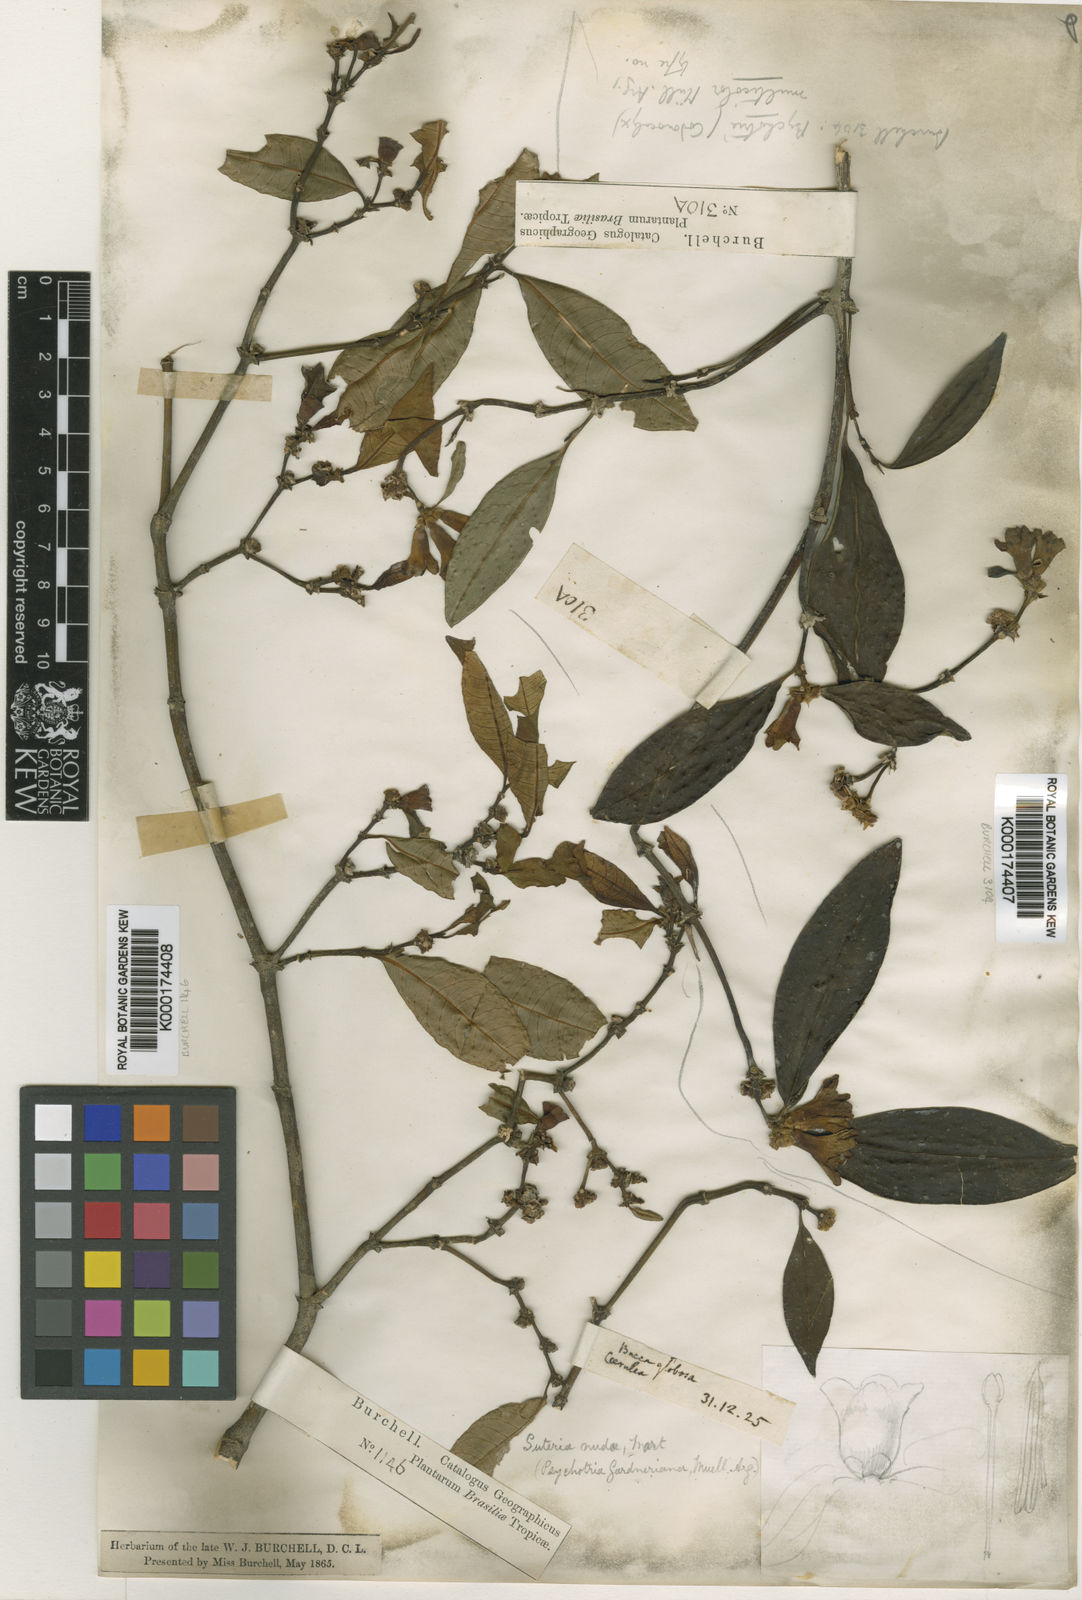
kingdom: Plantae
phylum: Tracheophyta
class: Magnoliopsida
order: Gentianales
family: Rubiaceae
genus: Psychotria
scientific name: Psychotria
